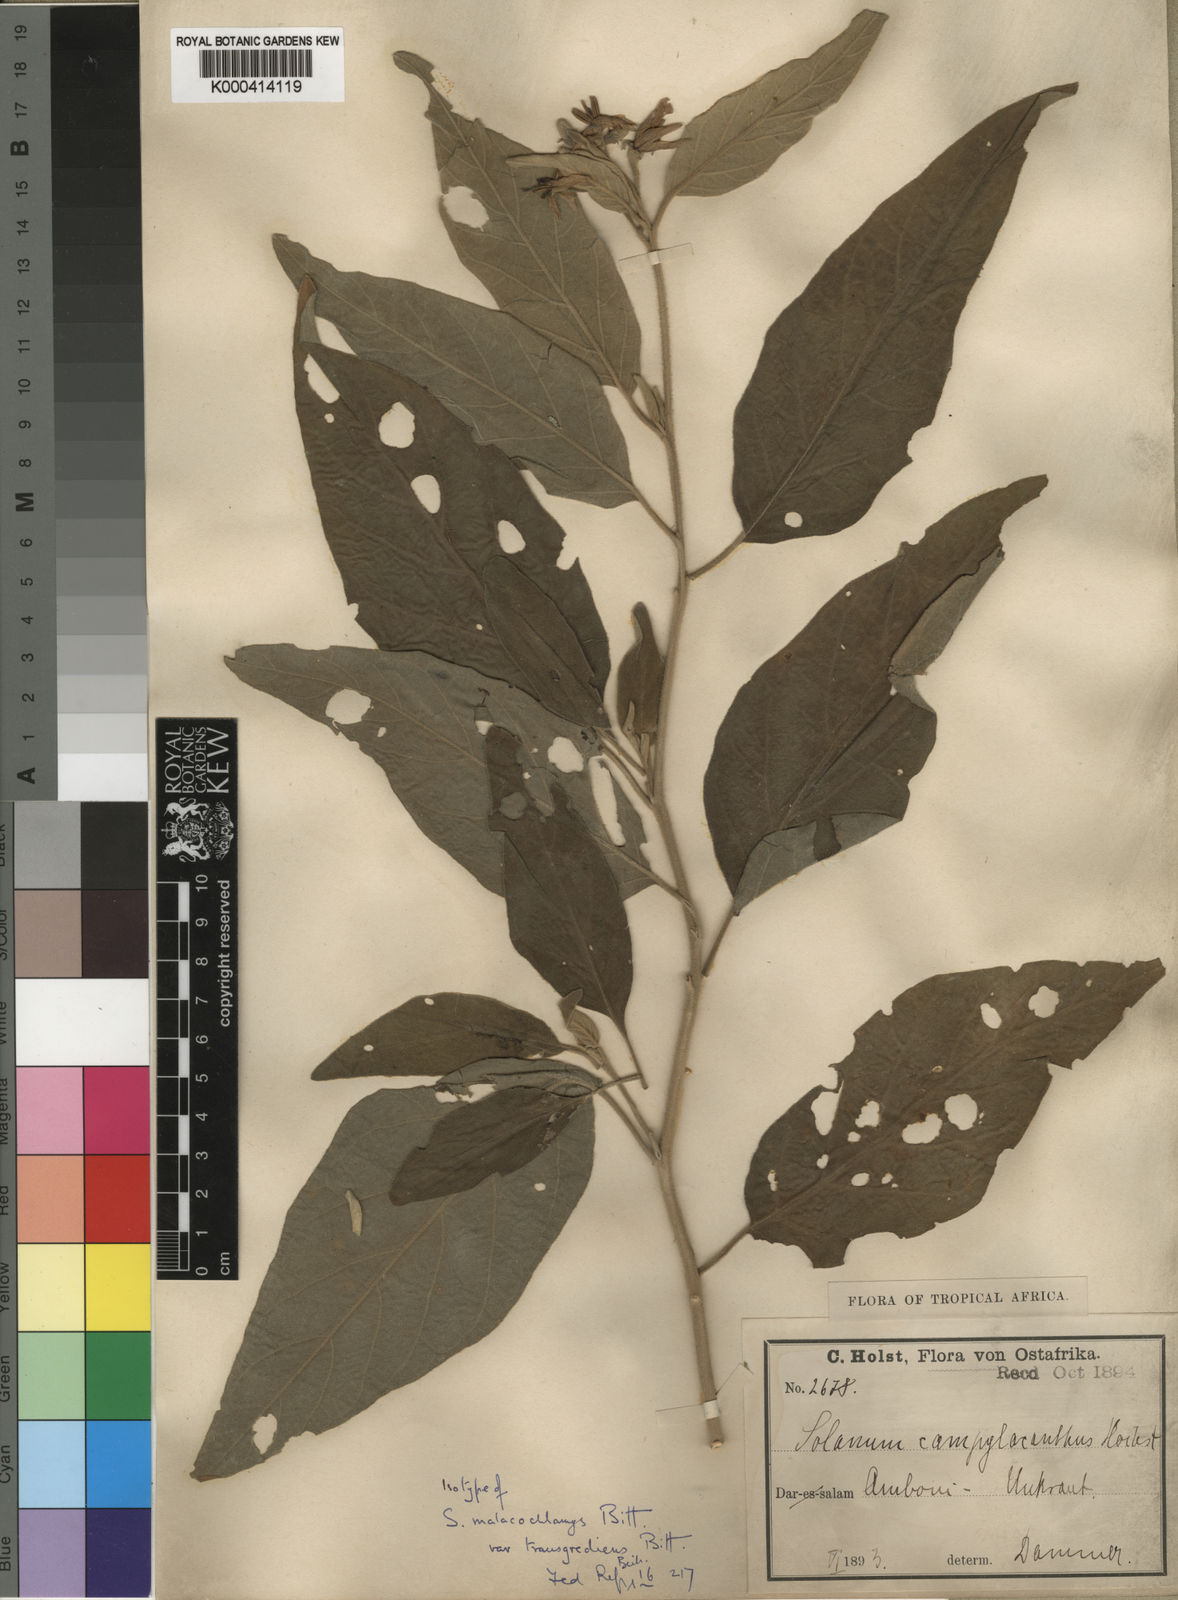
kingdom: Plantae
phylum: Tracheophyta
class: Magnoliopsida
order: Solanales
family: Solanaceae
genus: Solanum
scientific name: Solanum incanum
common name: Bitter apple
